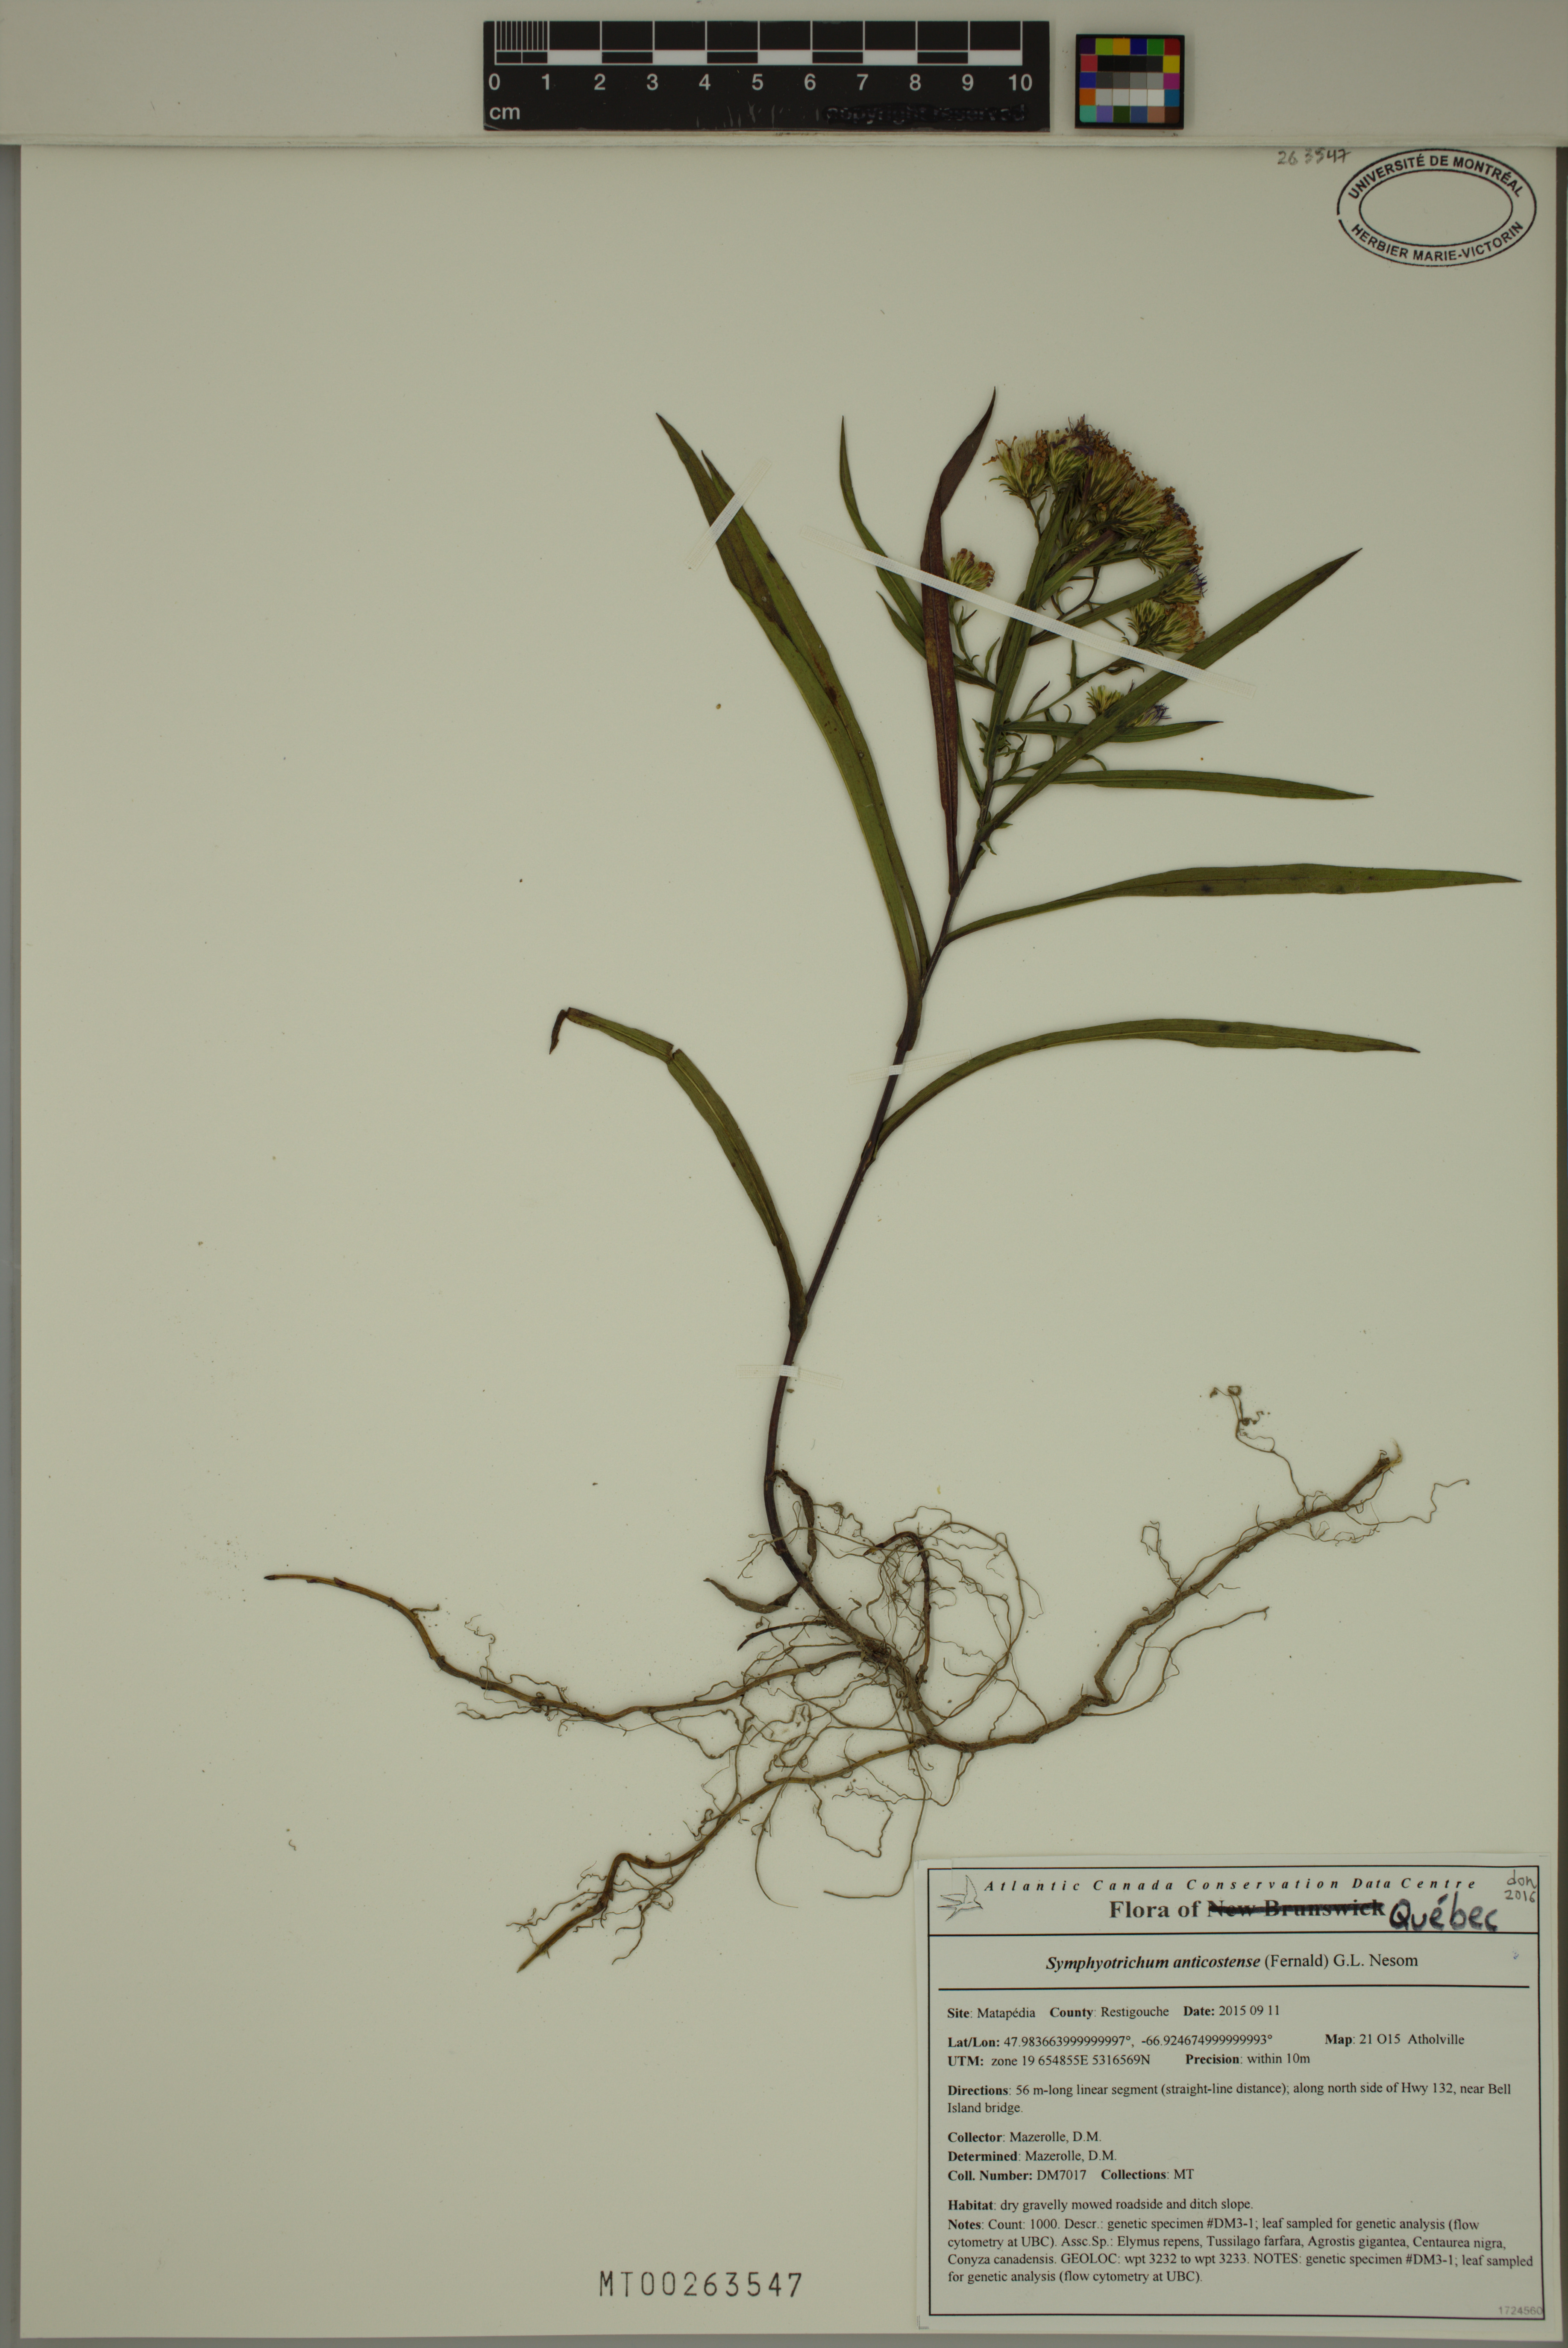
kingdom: Plantae
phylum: Tracheophyta
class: Magnoliopsida
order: Asterales
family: Asteraceae
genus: Symphyotrichum
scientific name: Symphyotrichum anticostense
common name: Anticosti island aster
